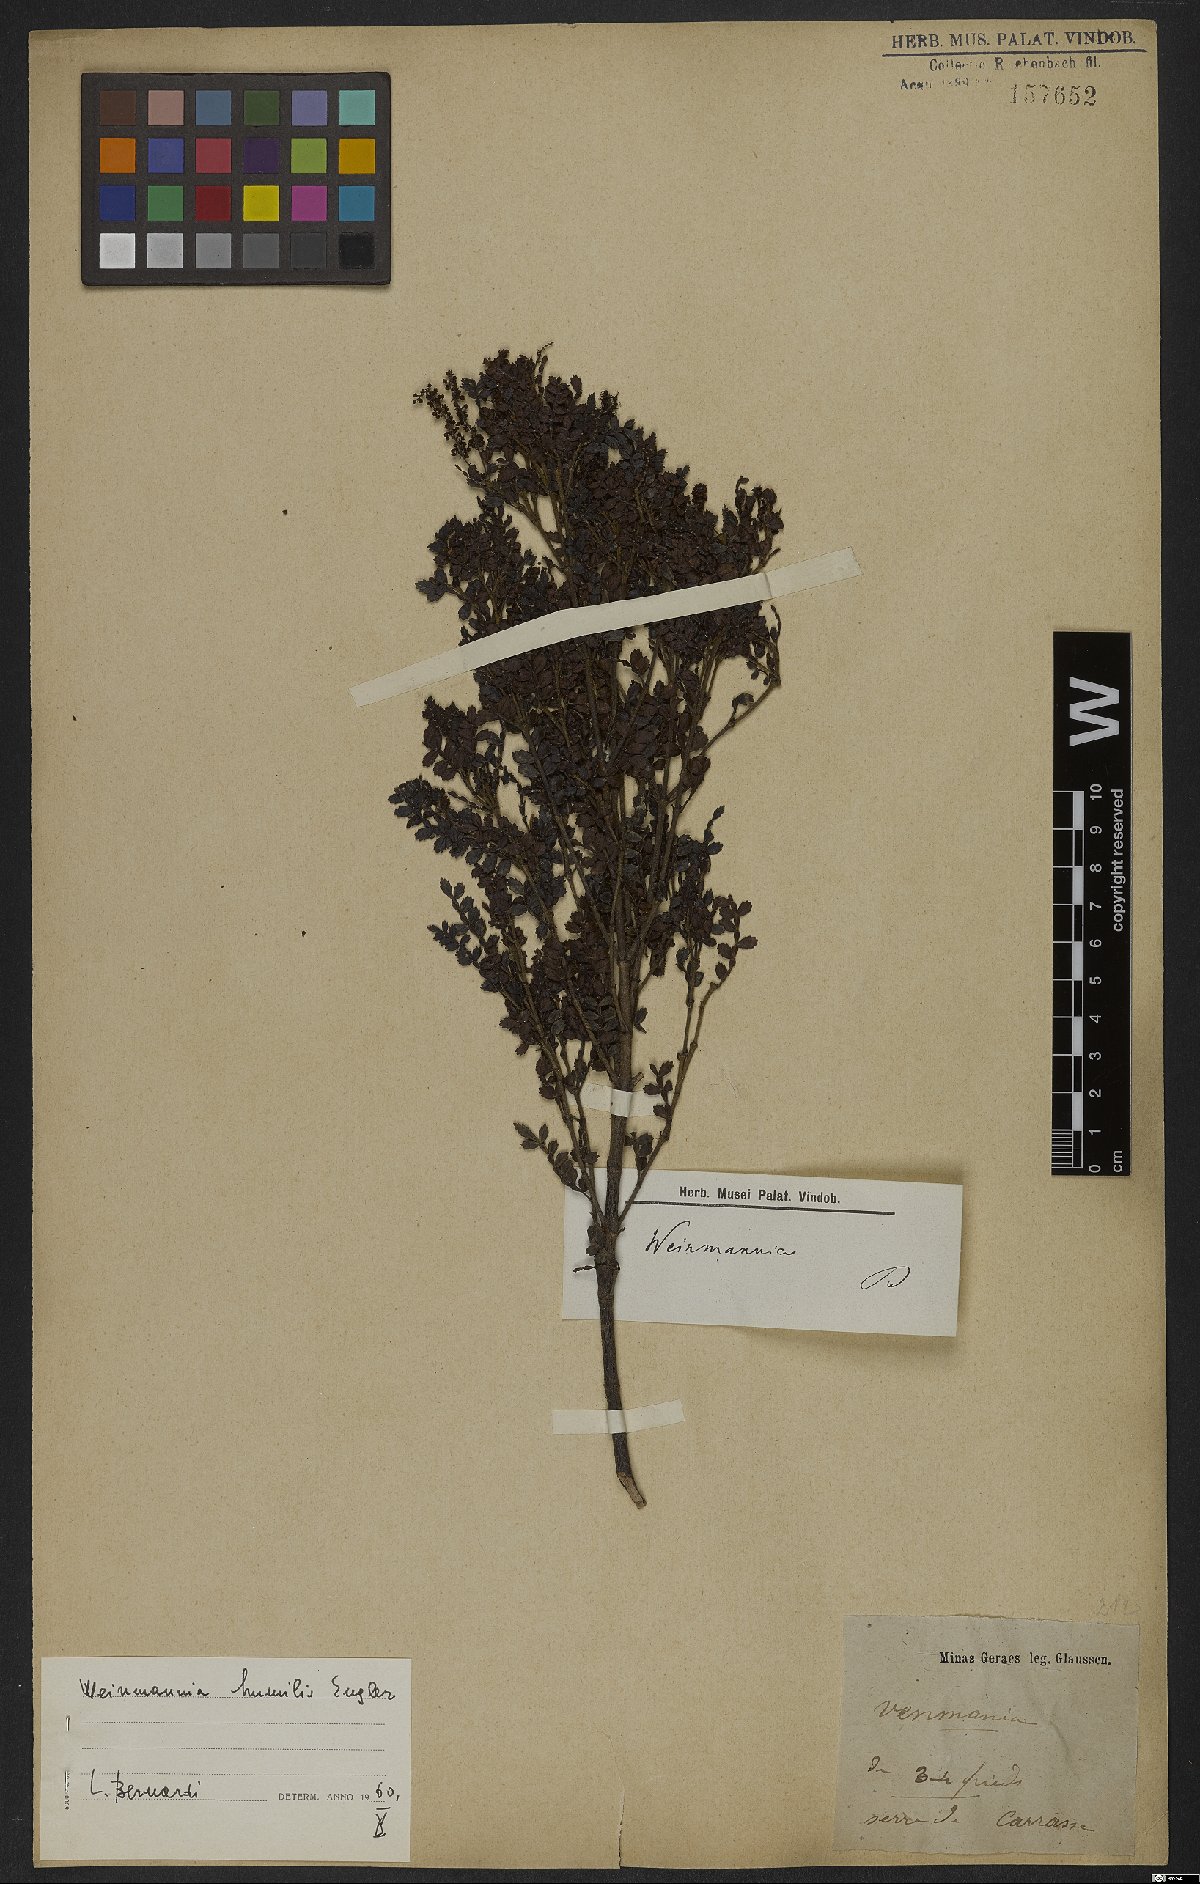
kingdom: Plantae
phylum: Tracheophyta
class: Magnoliopsida
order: Oxalidales
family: Cunoniaceae
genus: Weinmannia
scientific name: Weinmannia humilis
